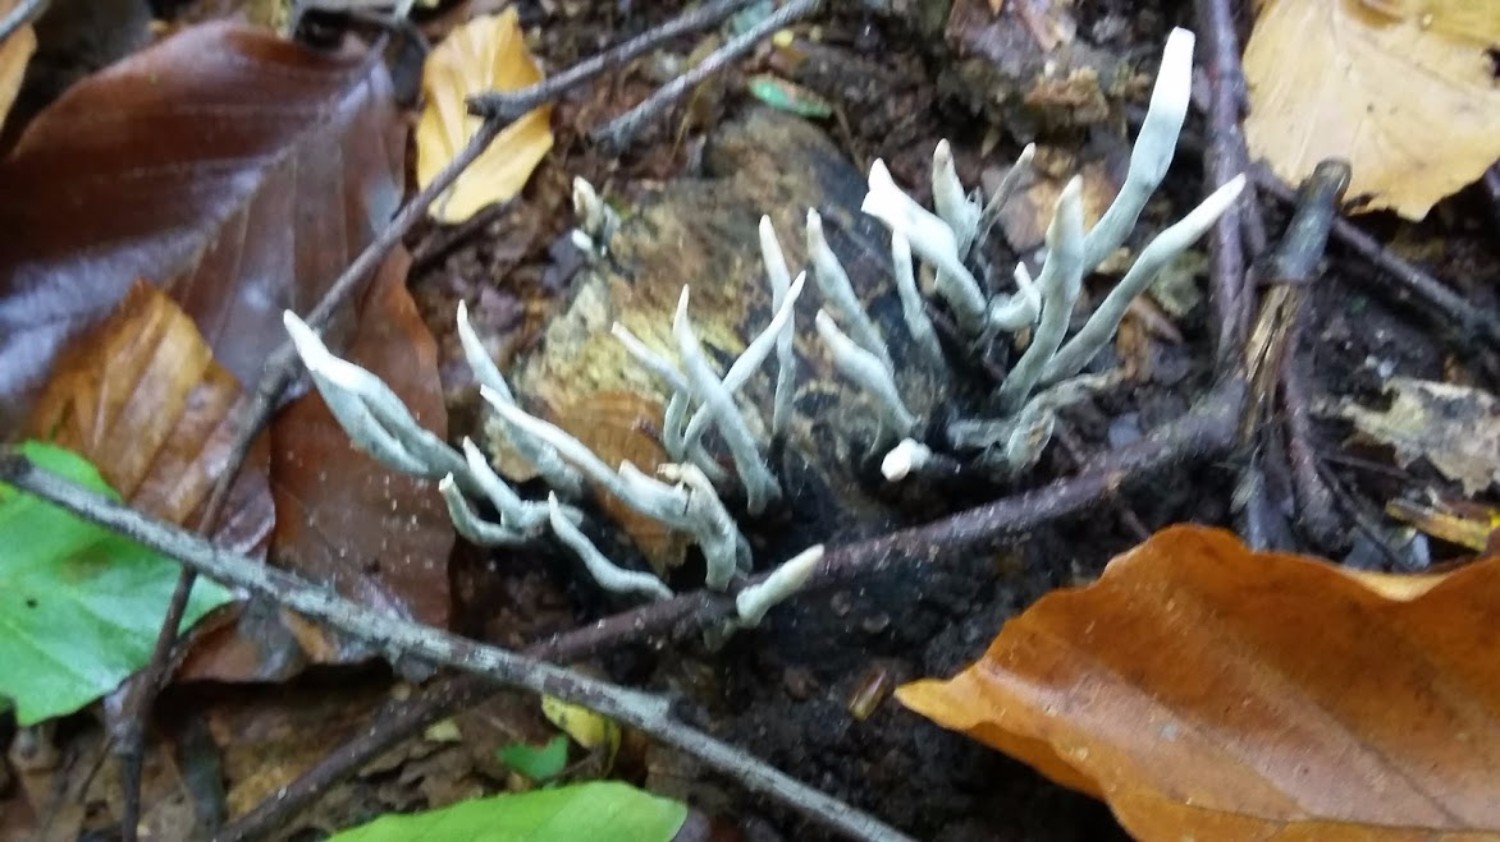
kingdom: Fungi
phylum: Ascomycota
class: Sordariomycetes
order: Xylariales
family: Xylariaceae
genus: Xylaria
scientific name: Xylaria hypoxylon
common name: grenet stødsvamp
